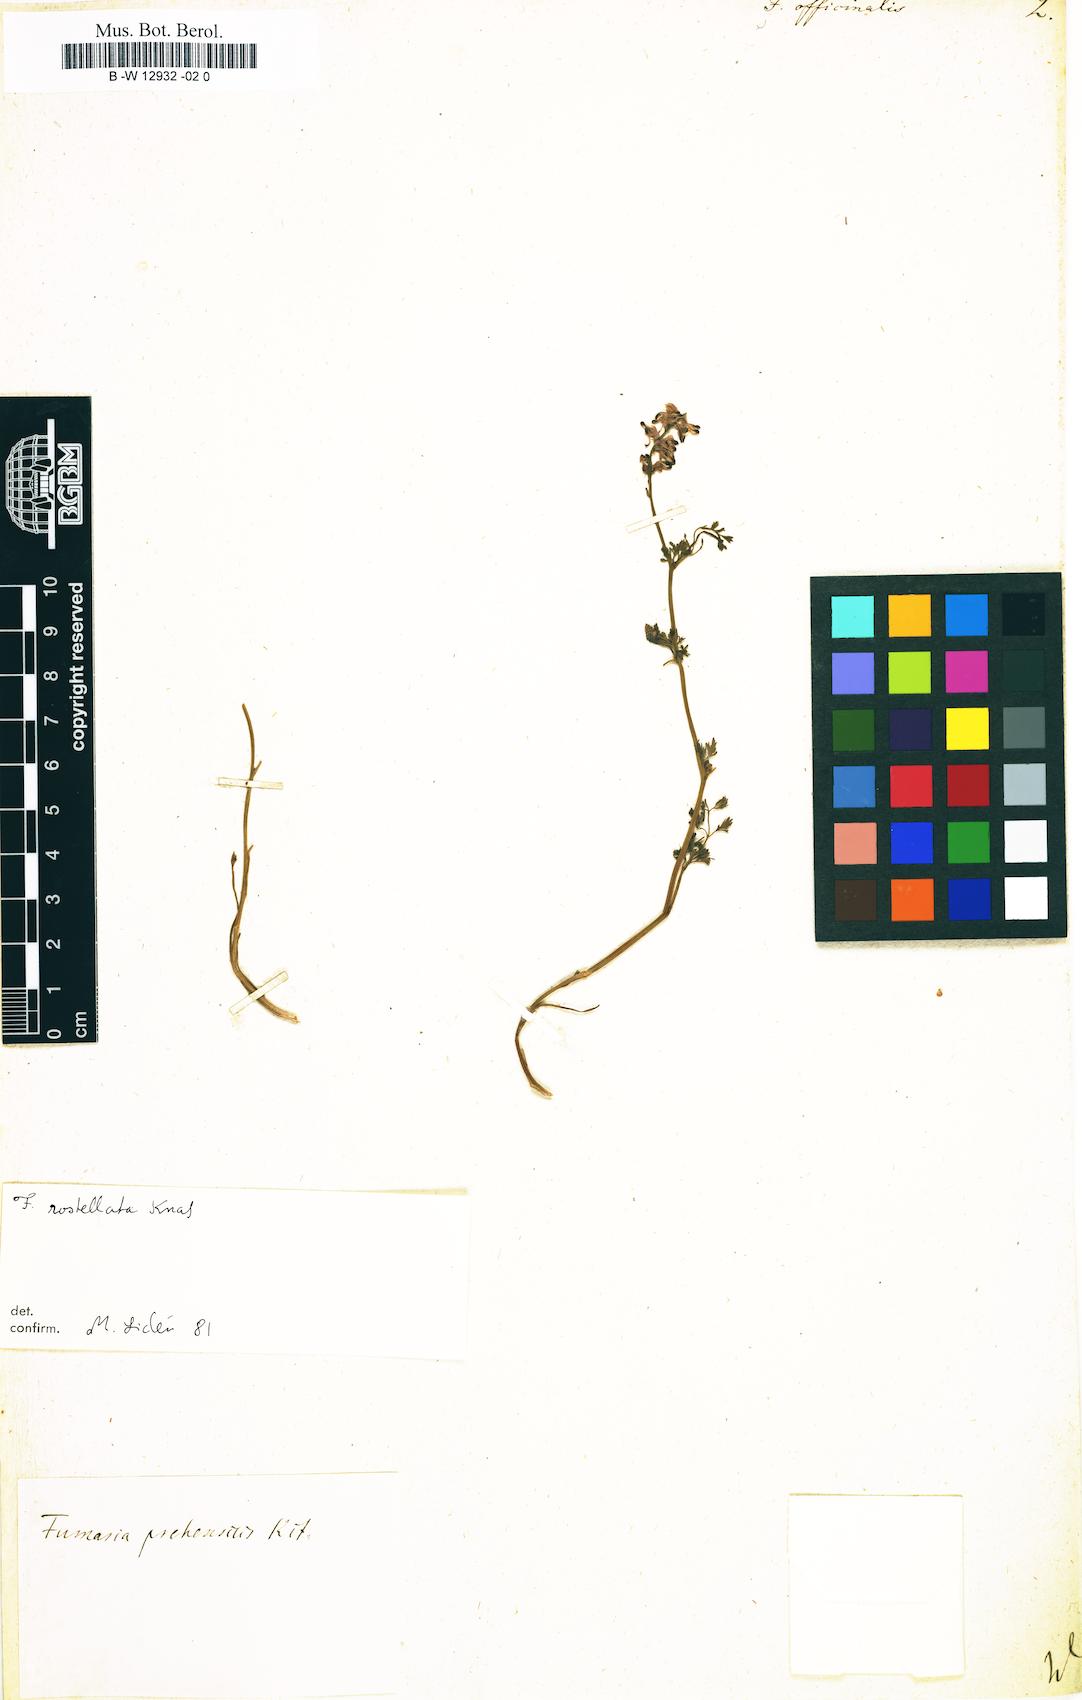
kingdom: Plantae
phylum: Tracheophyta
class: Magnoliopsida
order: Ranunculales
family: Papaveraceae
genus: Fumaria
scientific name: Fumaria officinalis
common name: Common fumitory
